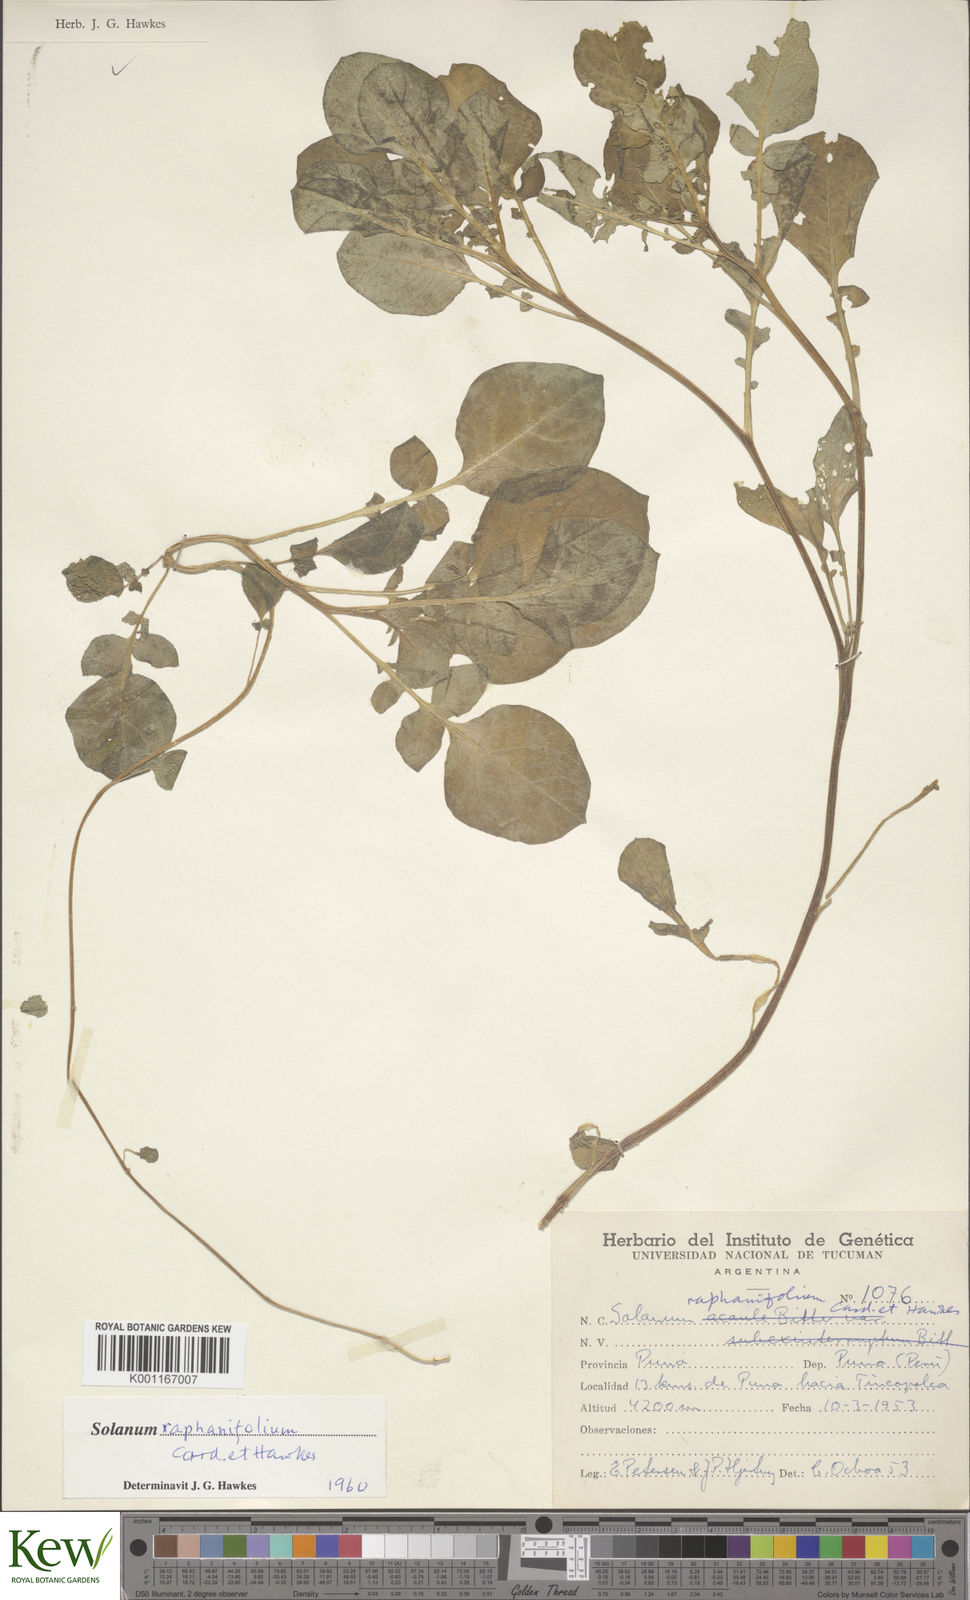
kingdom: Plantae
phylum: Tracheophyta
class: Magnoliopsida
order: Solanales
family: Solanaceae
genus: Solanum
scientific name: Solanum
